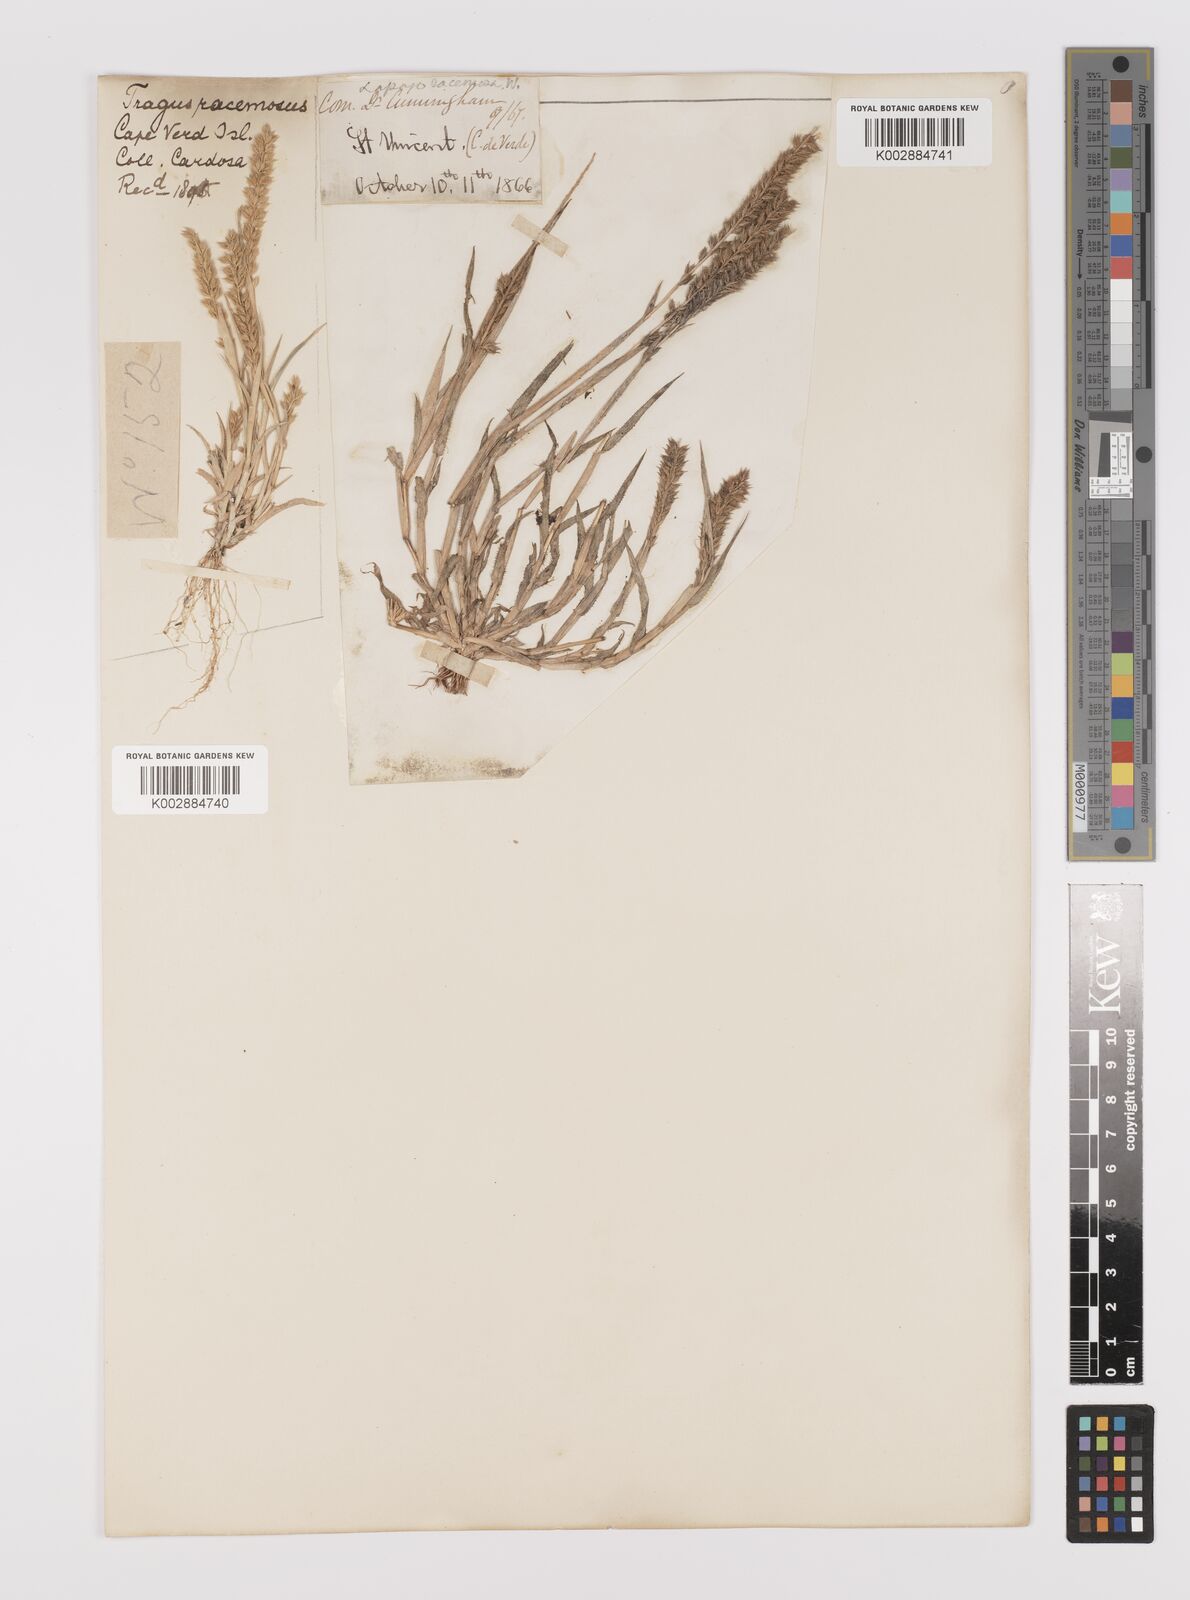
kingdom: Plantae
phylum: Tracheophyta
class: Liliopsida
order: Poales
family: Poaceae
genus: Tragus
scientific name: Tragus racemosus
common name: European bur-grass
